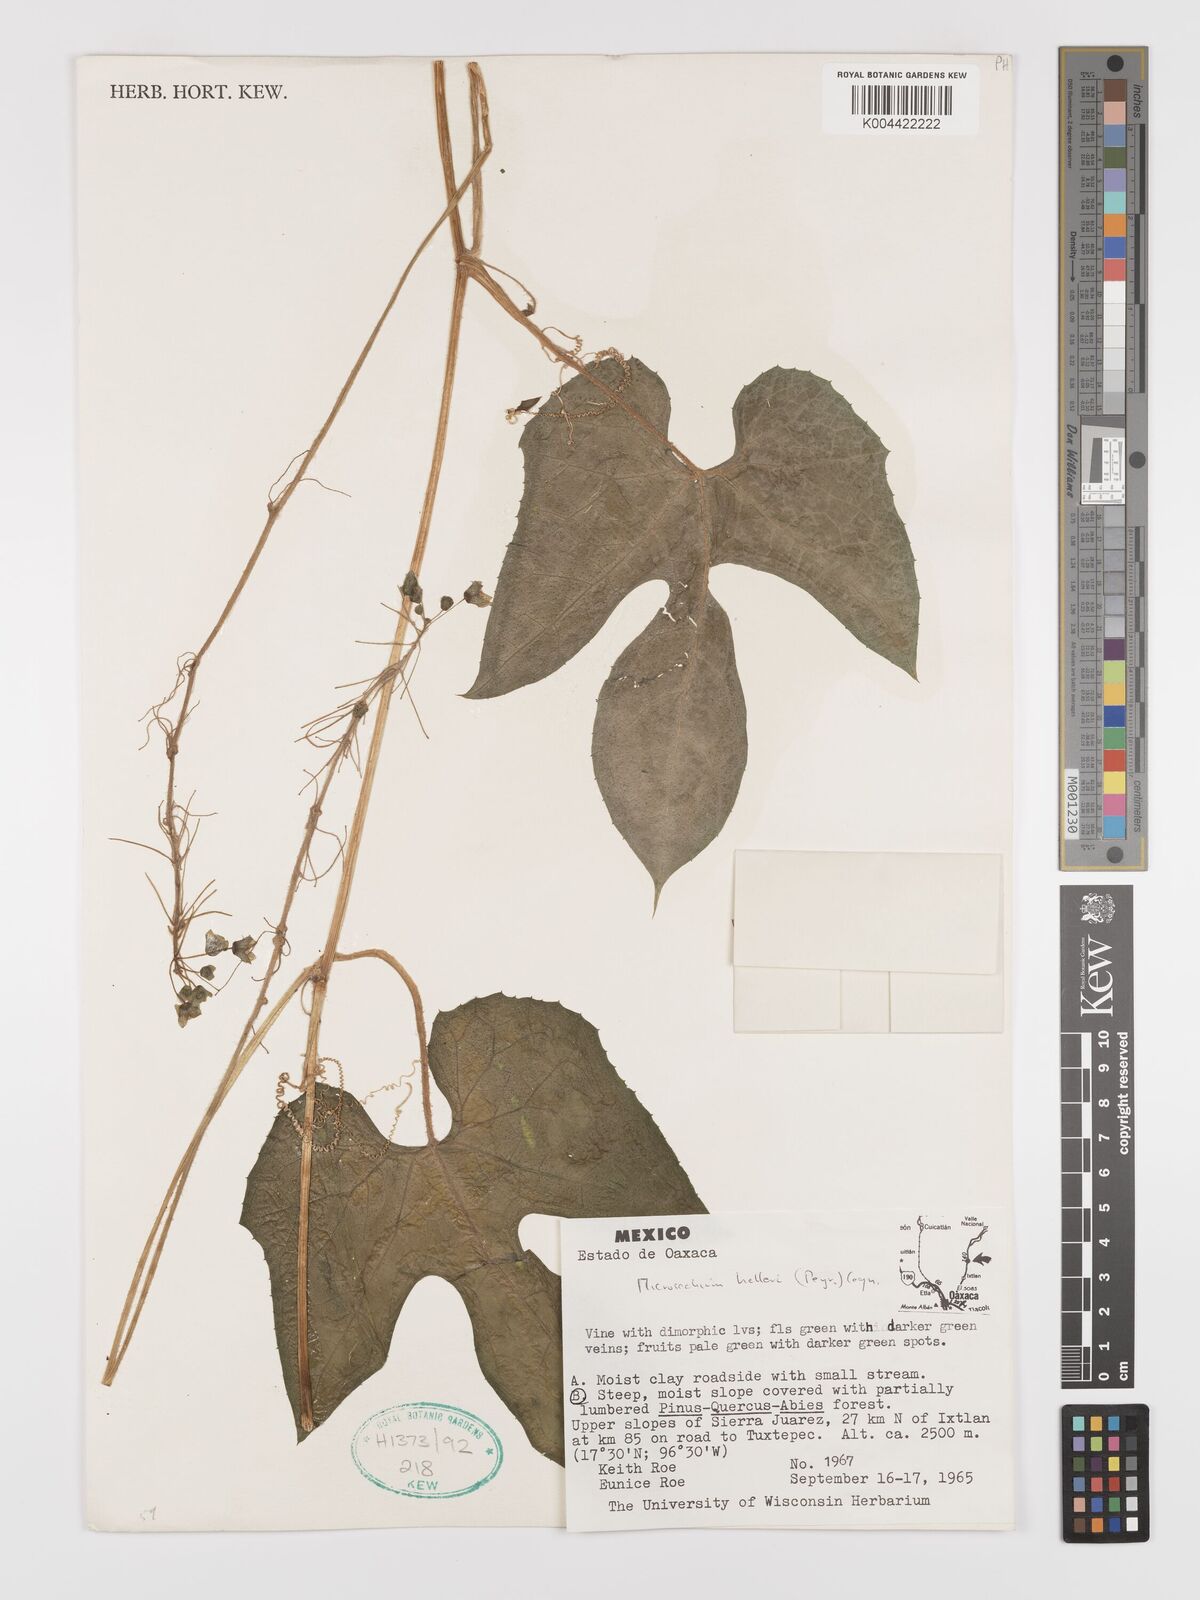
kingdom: Plantae
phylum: Tracheophyta
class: Magnoliopsida
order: Cucurbitales
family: Cucurbitaceae
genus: Microsechium
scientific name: Microsechium palmatum
